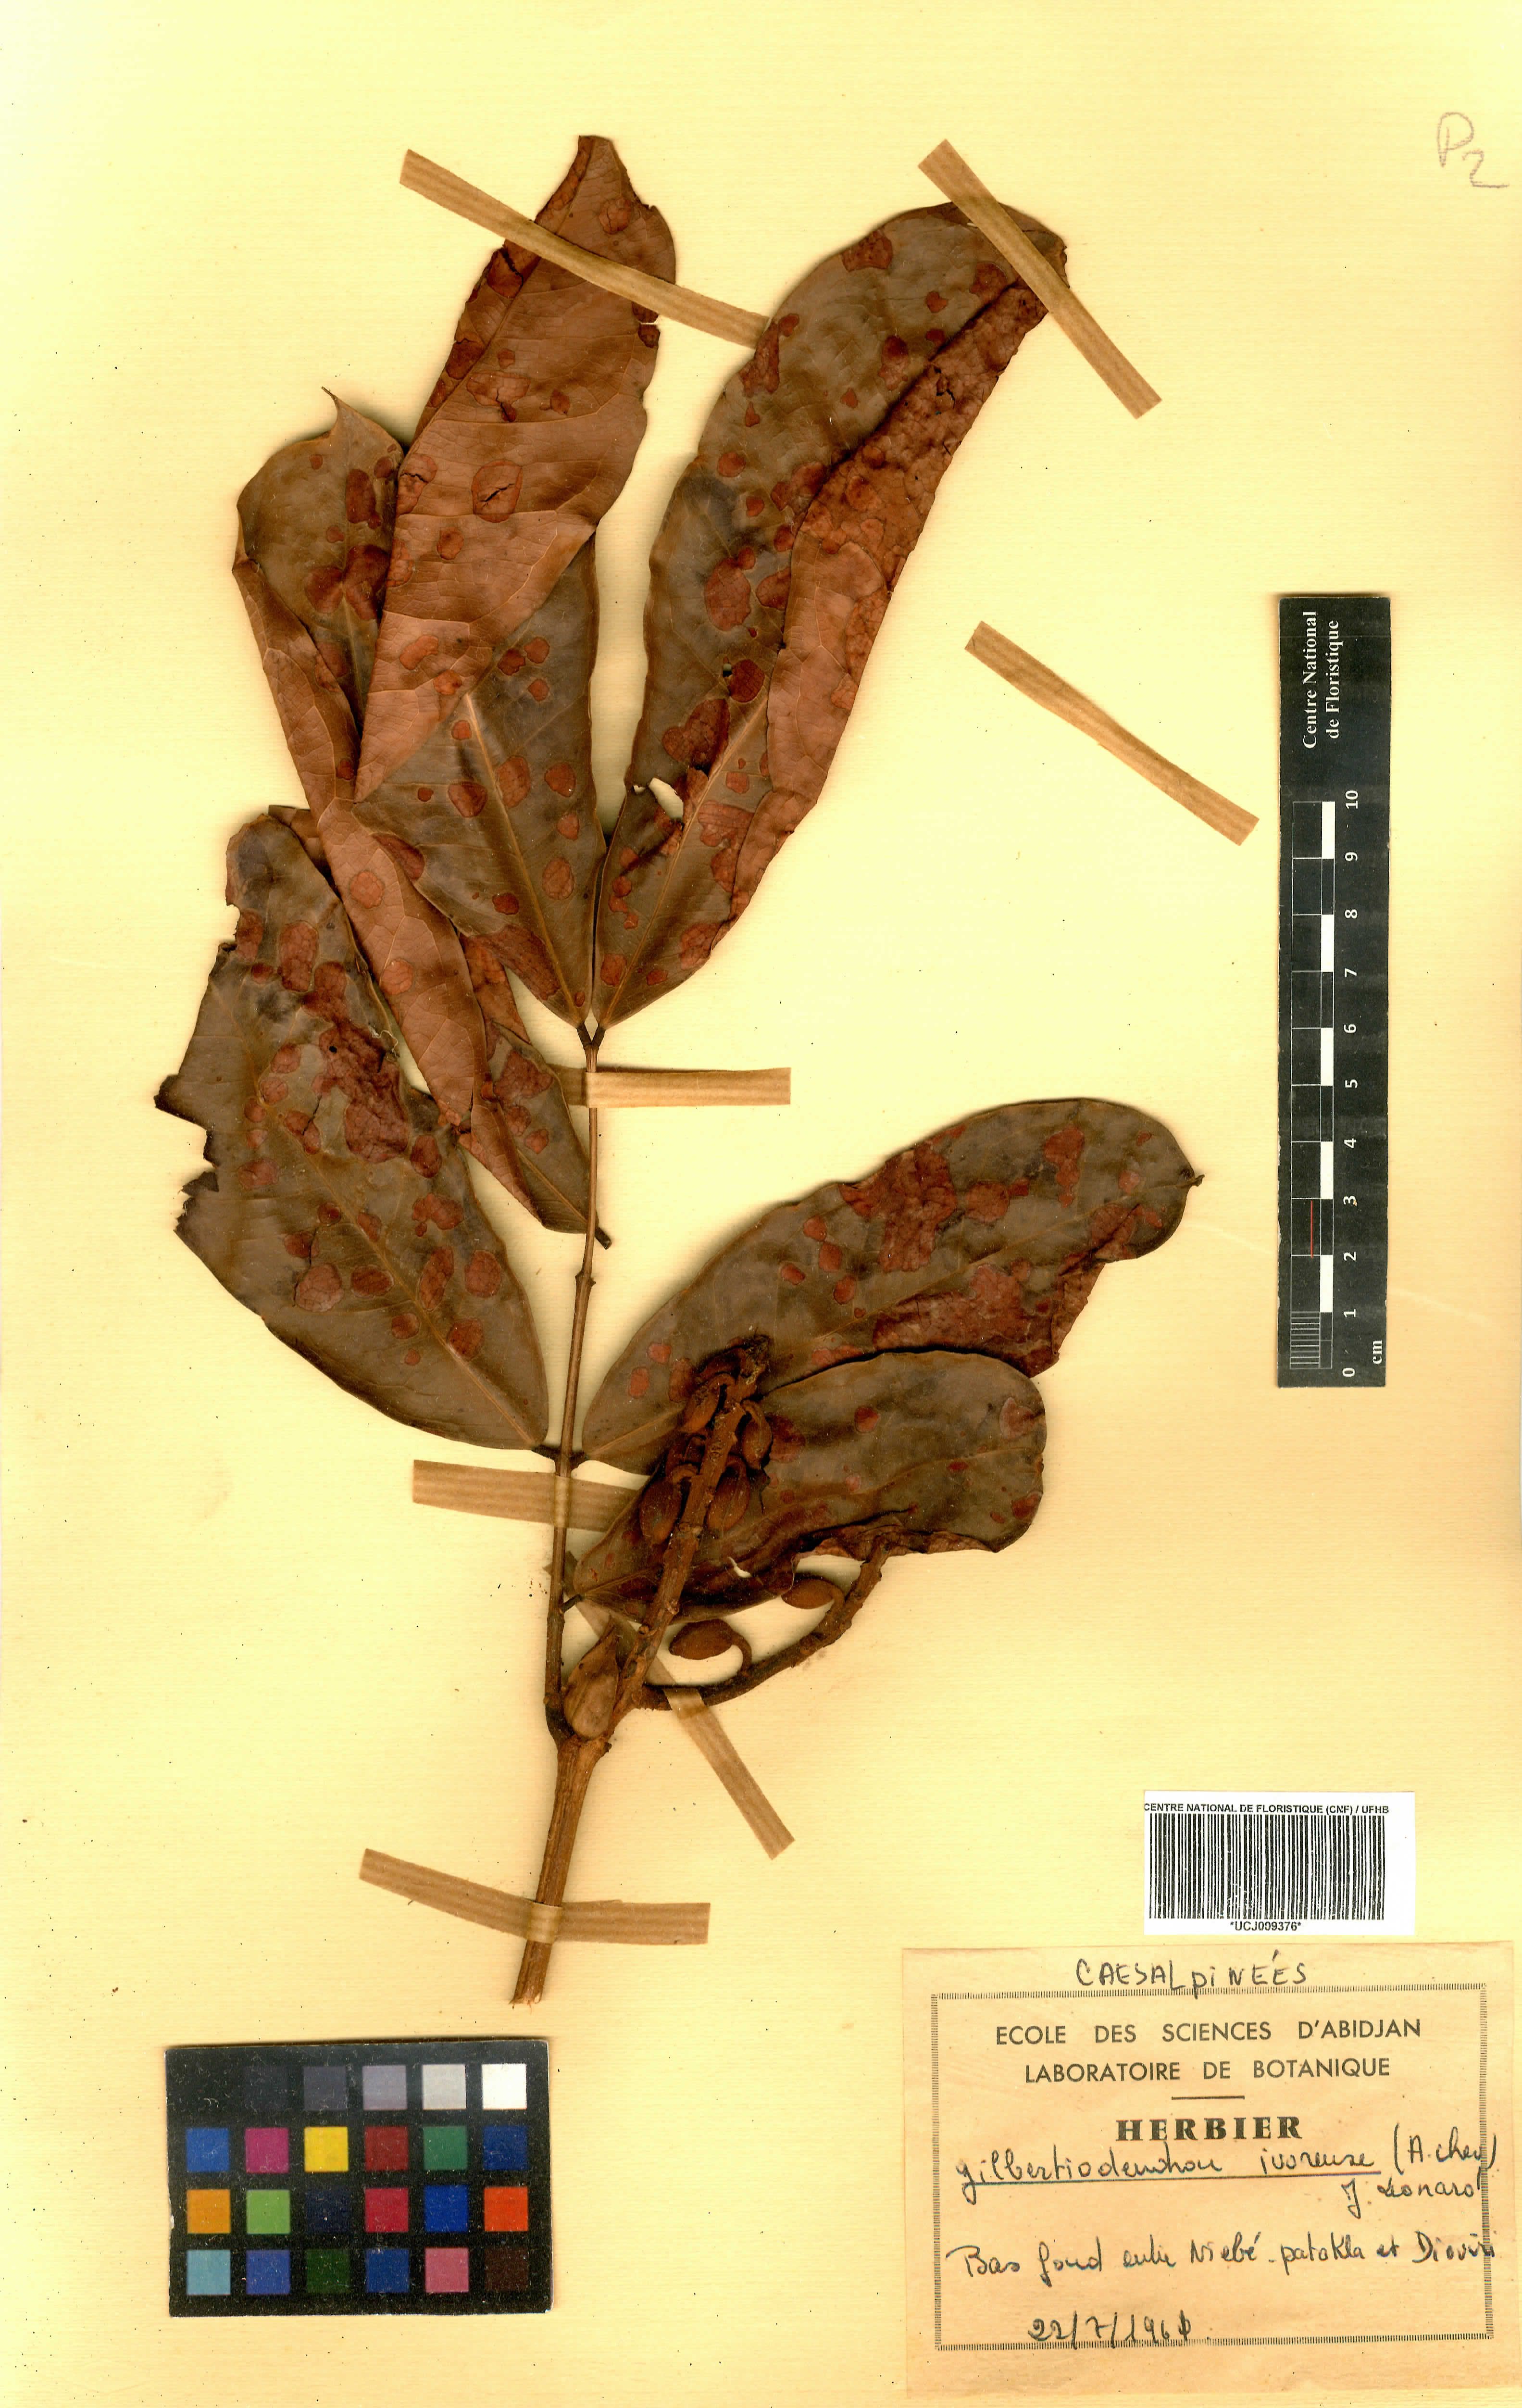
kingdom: Plantae
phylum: Tracheophyta
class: Magnoliopsida
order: Fabales
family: Fabaceae
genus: Gilbertiodendron
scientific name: Gilbertiodendron ivorense
